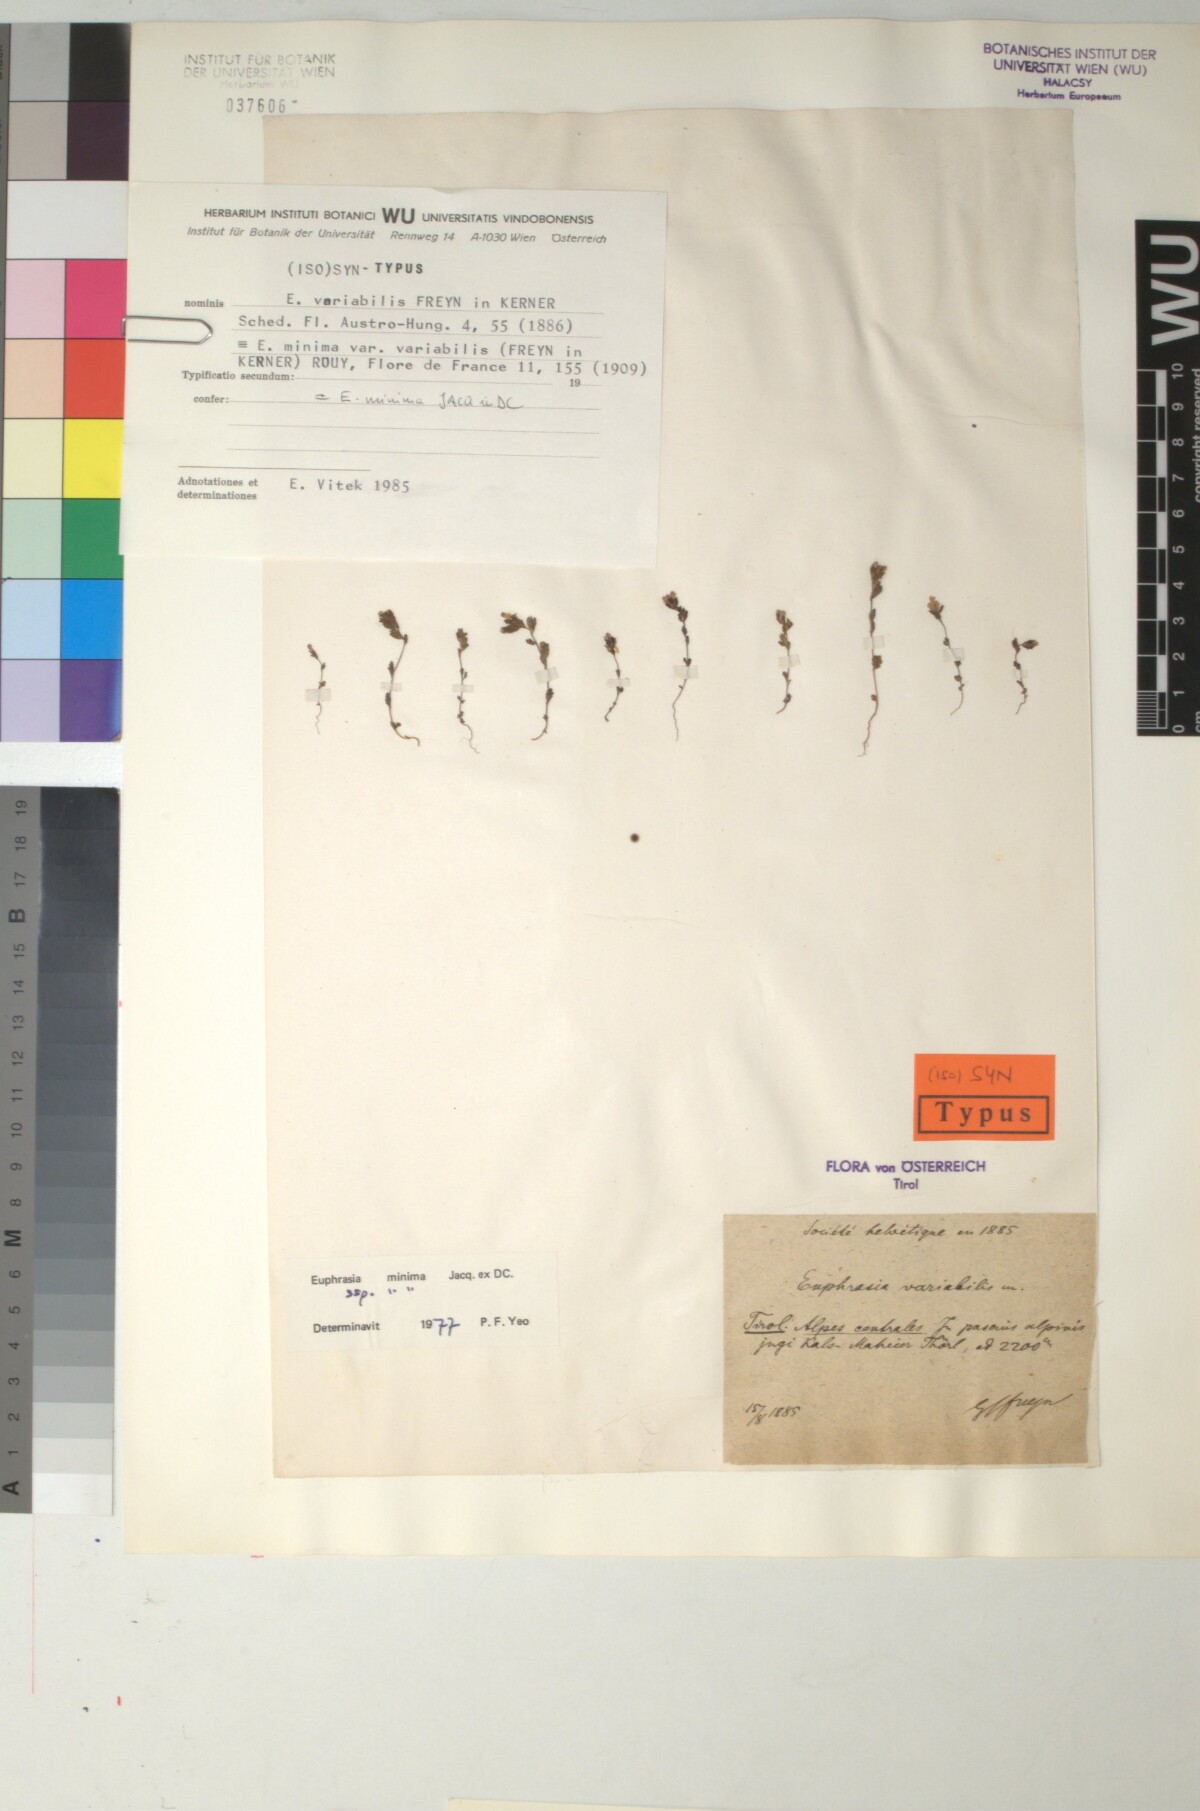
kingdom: Plantae
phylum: Tracheophyta
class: Magnoliopsida
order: Lamiales
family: Orobanchaceae
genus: Euphrasia
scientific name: Euphrasia variabilis
